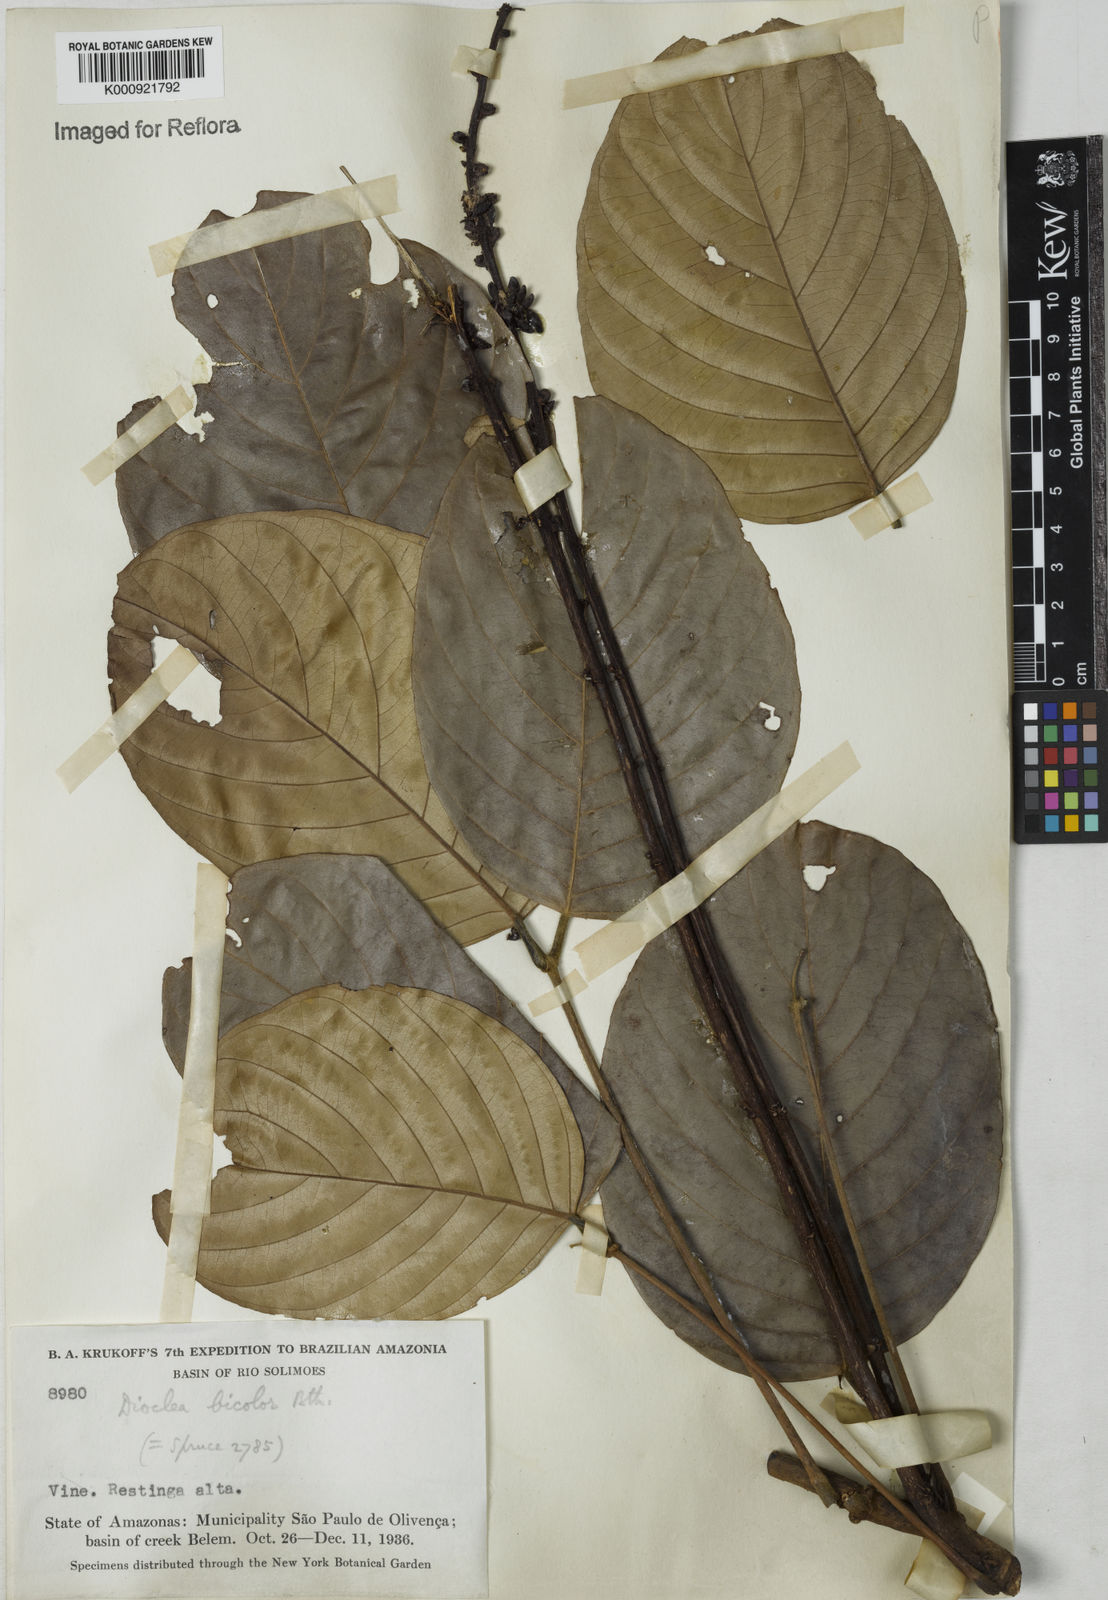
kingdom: Plantae
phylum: Tracheophyta
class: Magnoliopsida
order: Fabales
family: Fabaceae
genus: Macropsychanthus
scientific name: Macropsychanthus bicolor
